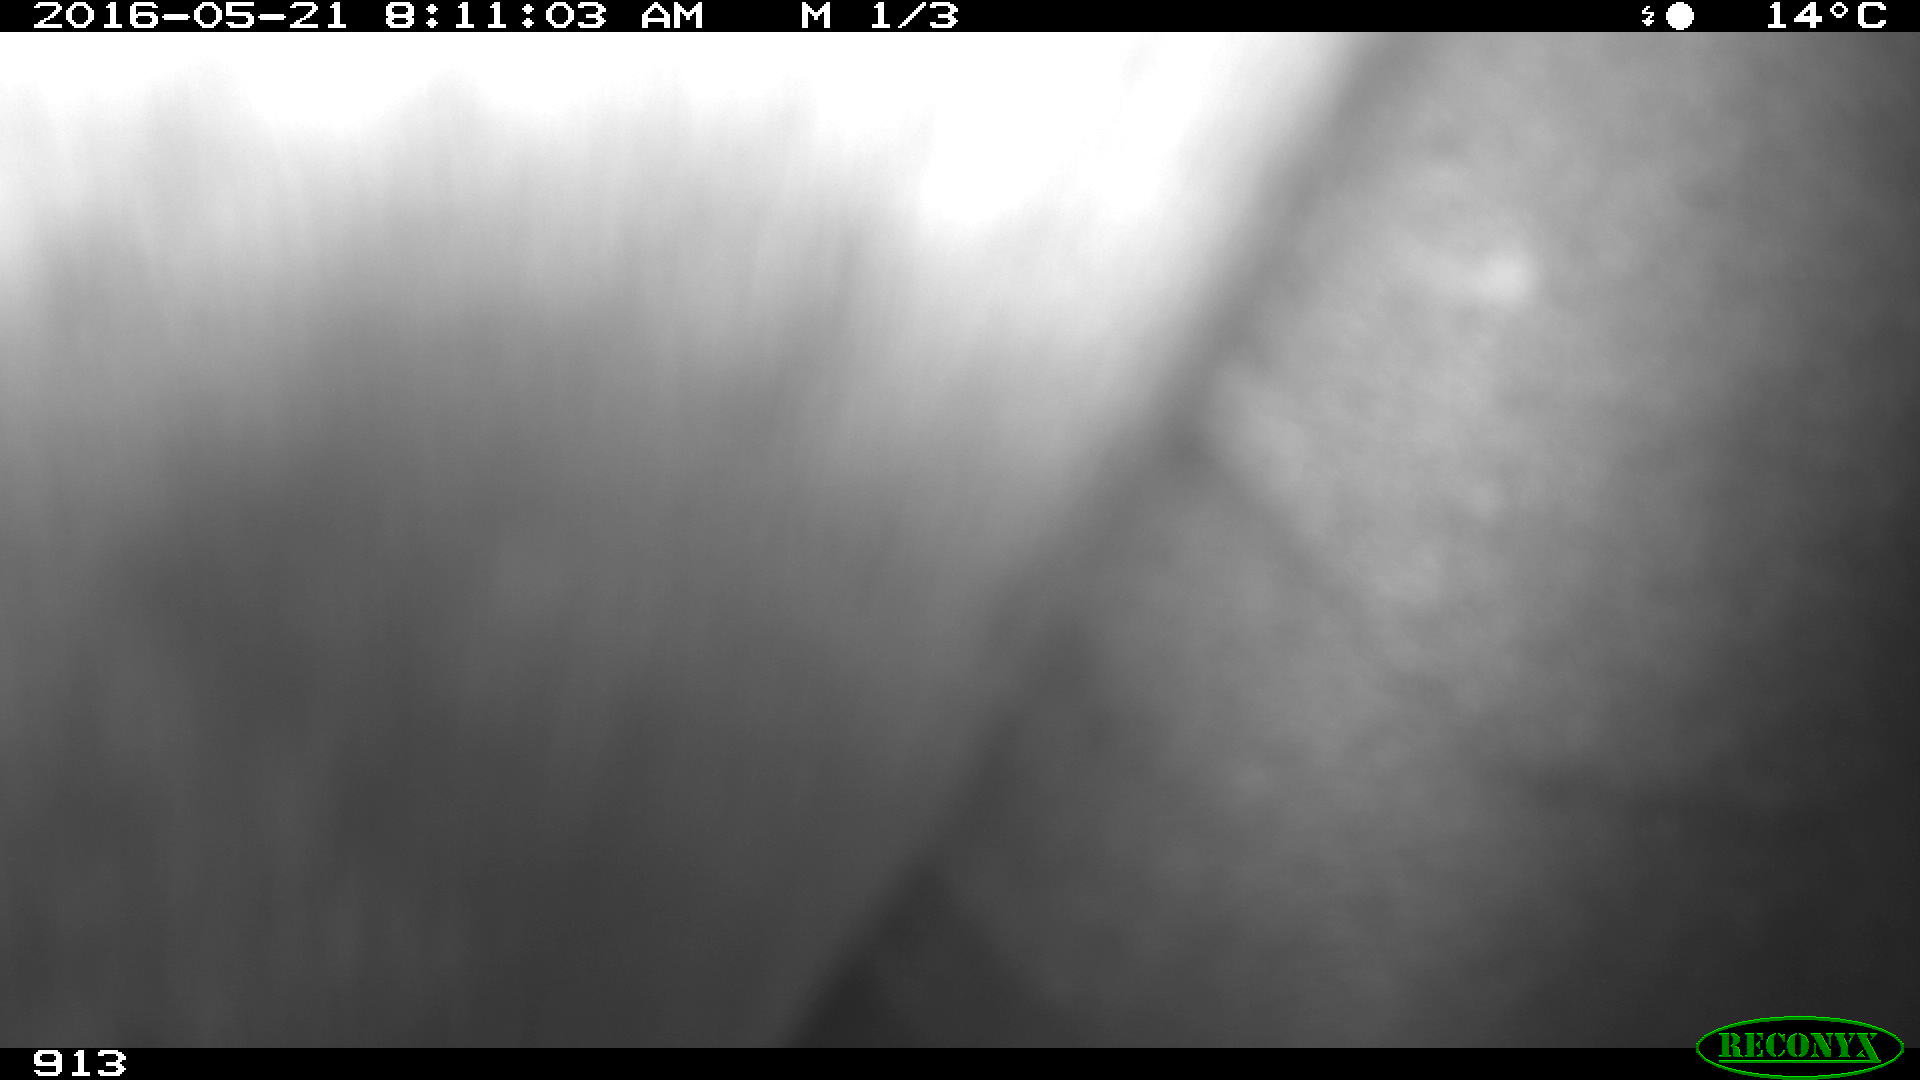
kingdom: Animalia
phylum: Chordata
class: Mammalia
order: Perissodactyla
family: Equidae
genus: Equus
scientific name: Equus caballus
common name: Horse
